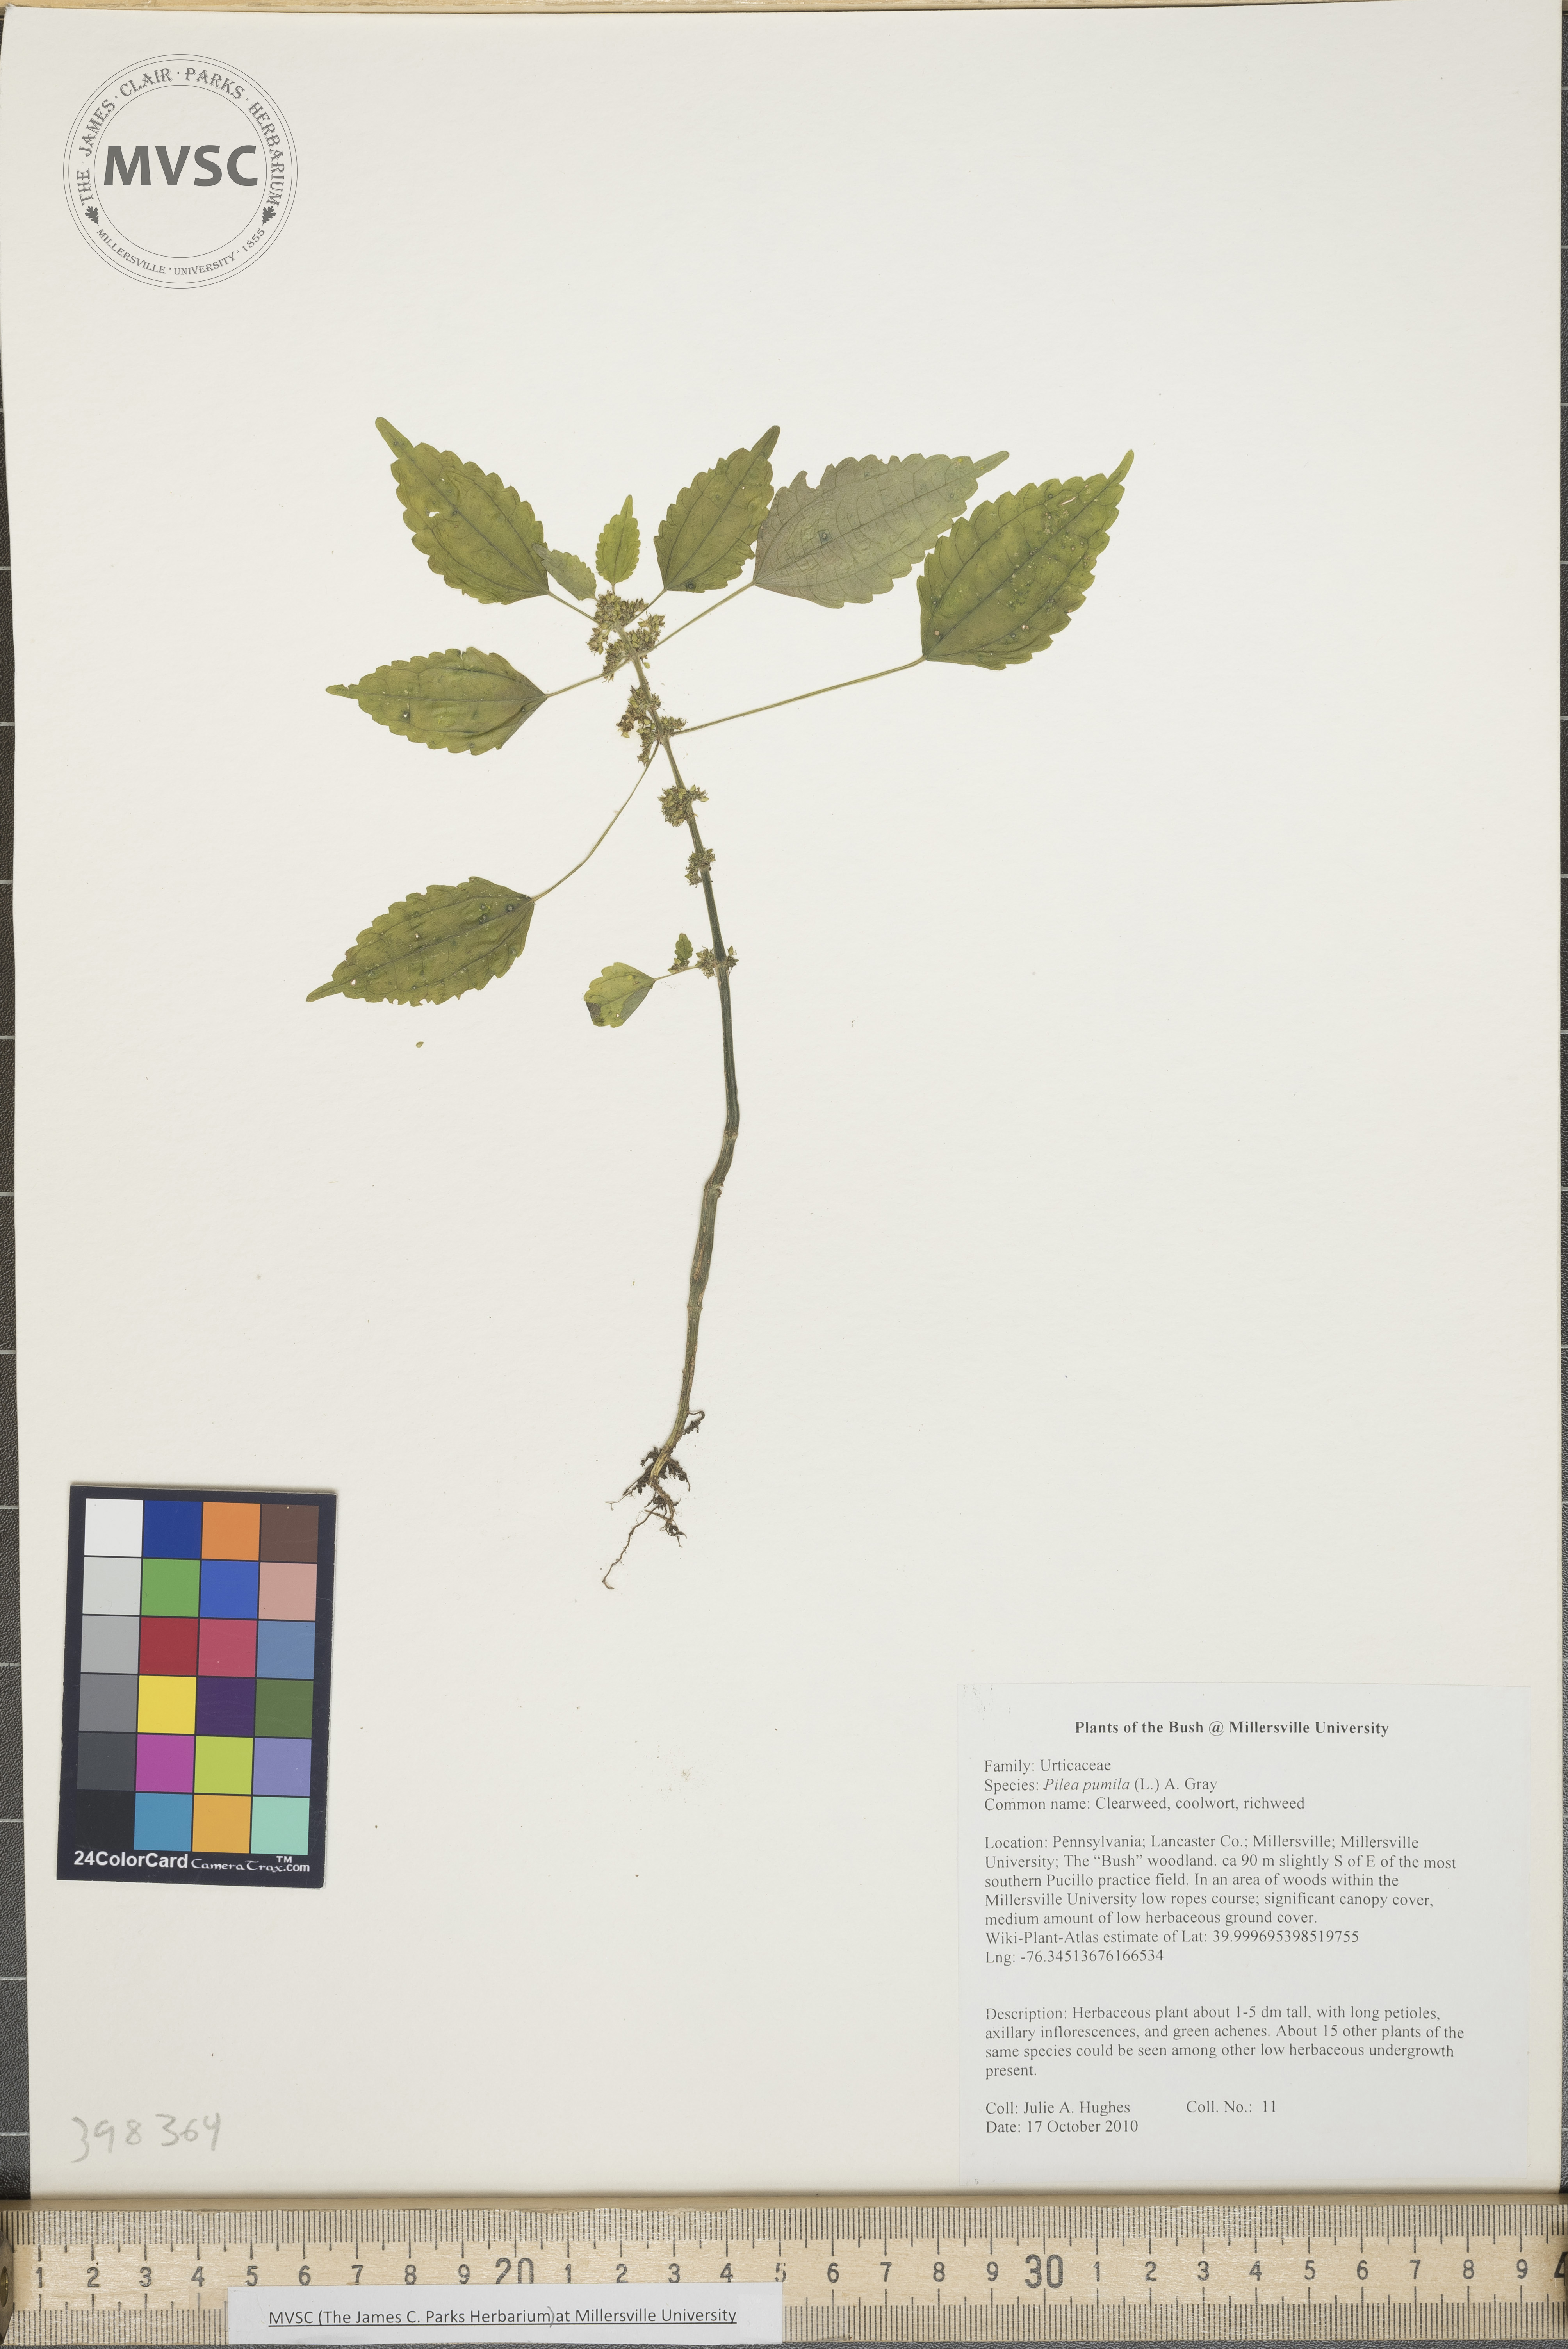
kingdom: Plantae
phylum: Tracheophyta
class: Magnoliopsida
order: Rosales
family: Urticaceae
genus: Pilea
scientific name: Pilea pumila
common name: Clearweed
